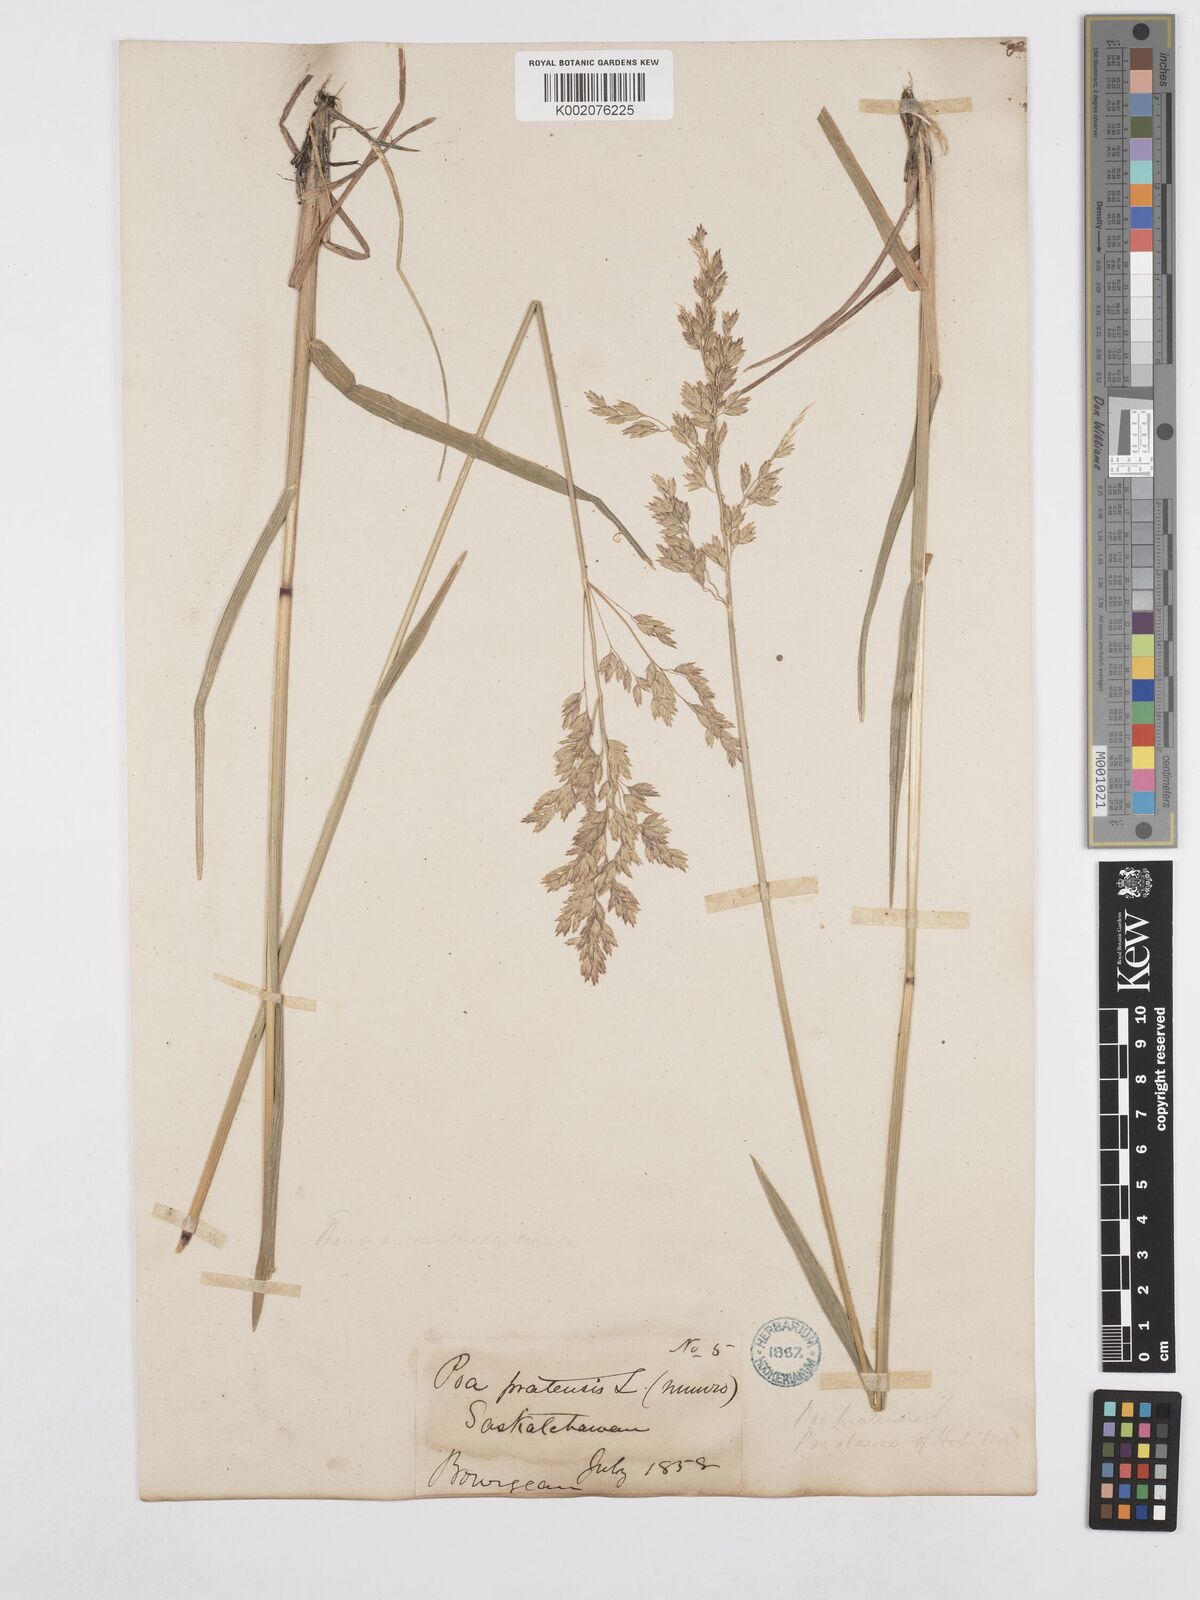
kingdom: Plantae
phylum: Tracheophyta
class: Liliopsida
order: Poales
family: Poaceae
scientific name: Poaceae
